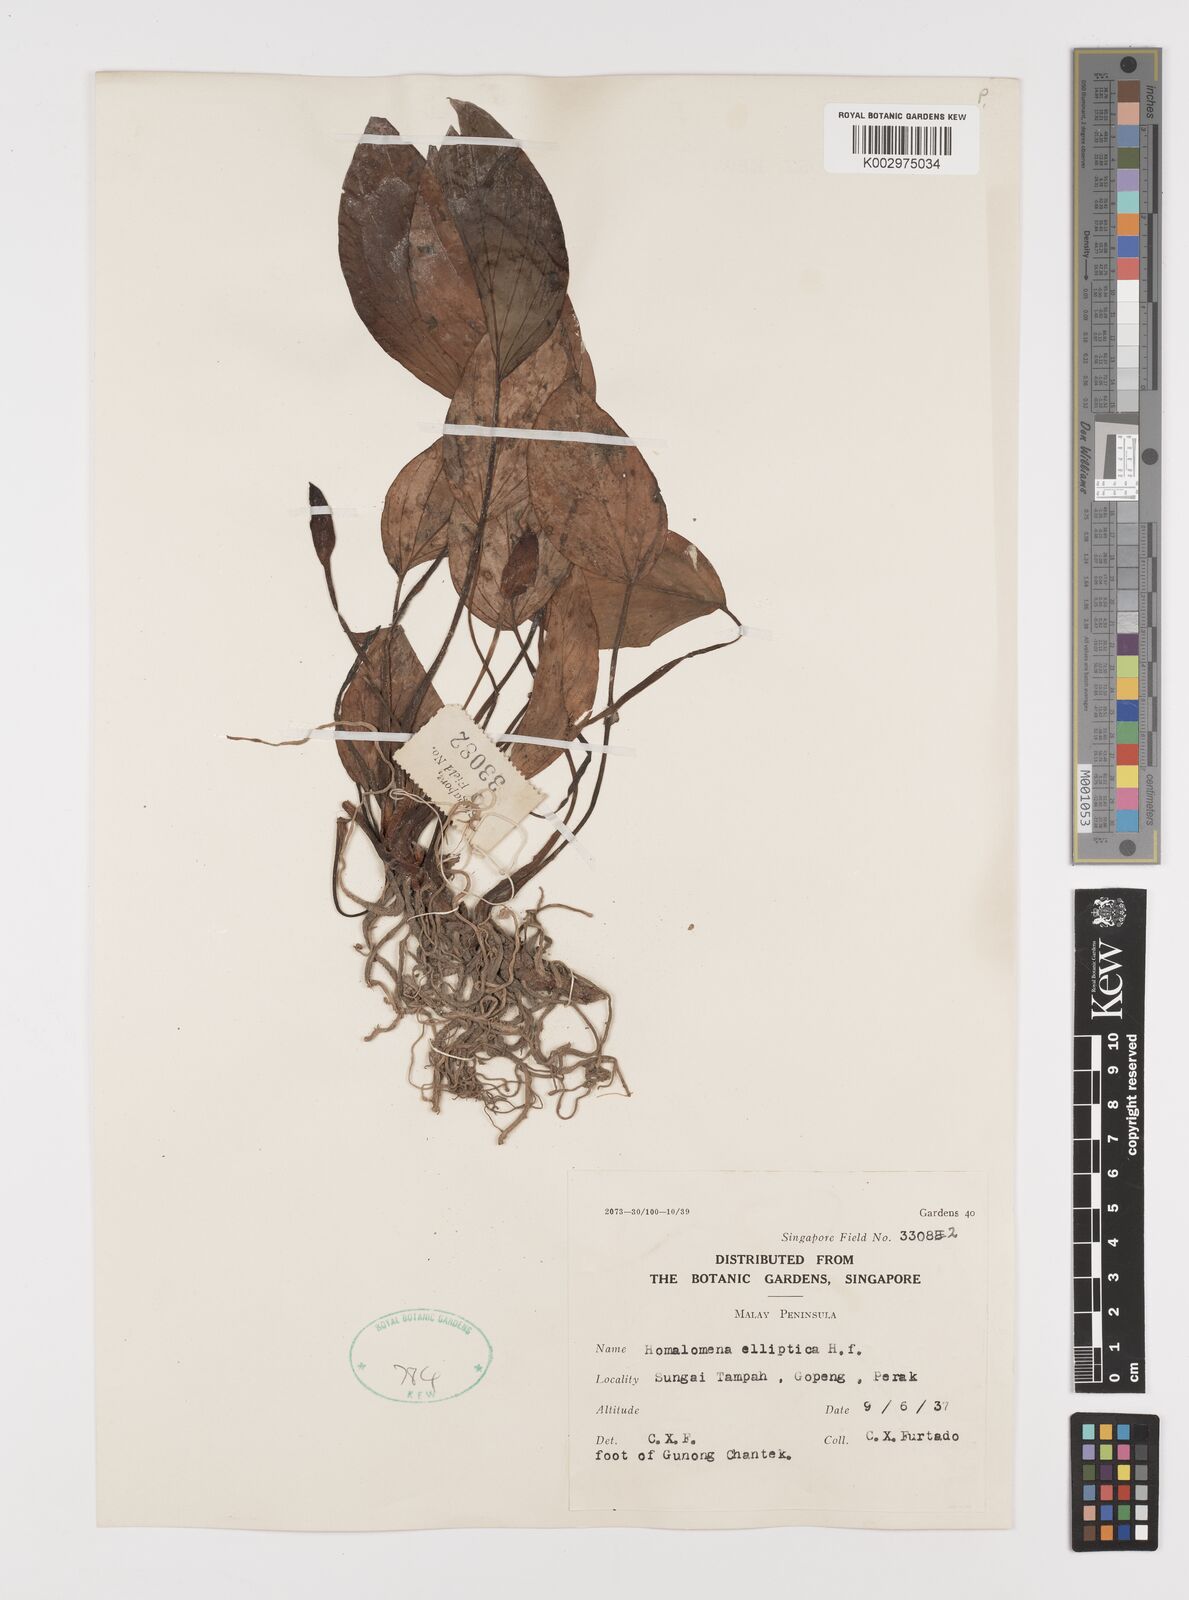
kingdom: Plantae
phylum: Tracheophyta
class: Liliopsida
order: Alismatales
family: Araceae
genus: Homalomena
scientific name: Homalomena griffithii
